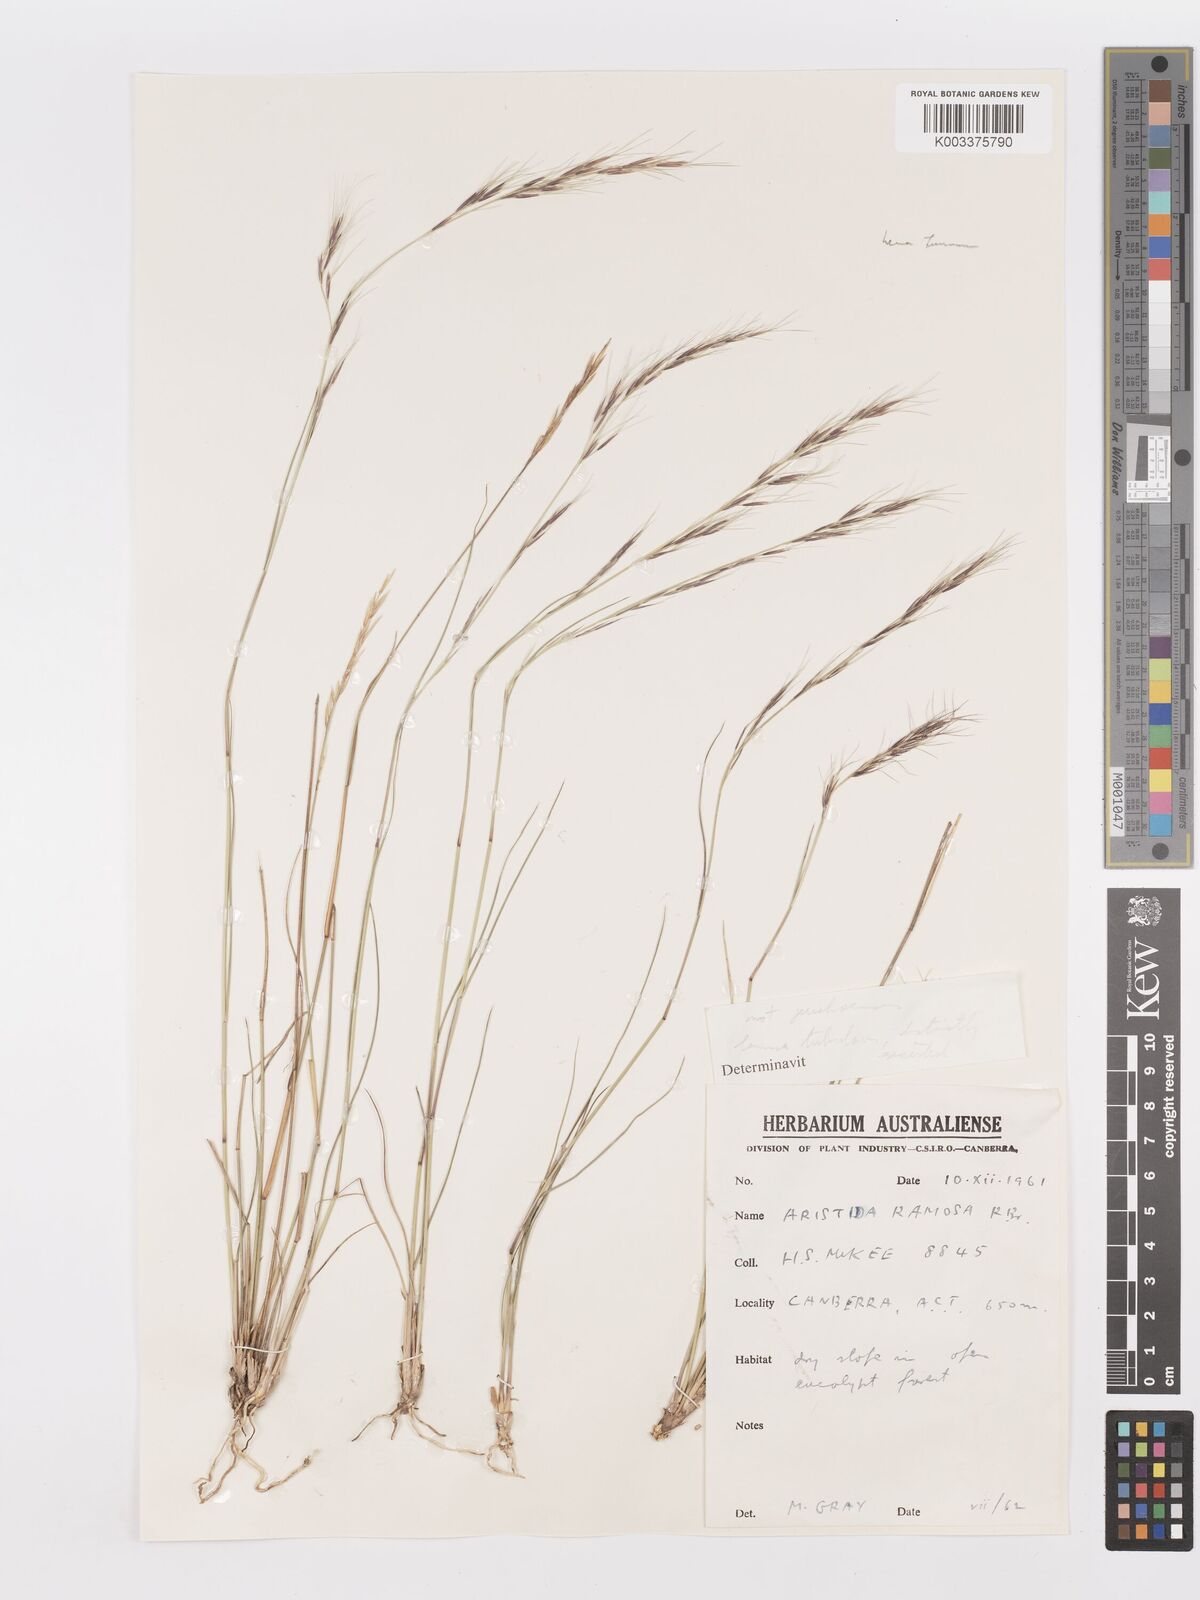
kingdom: Plantae
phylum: Tracheophyta
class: Liliopsida
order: Poales
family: Poaceae
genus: Aristida
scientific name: Aristida
